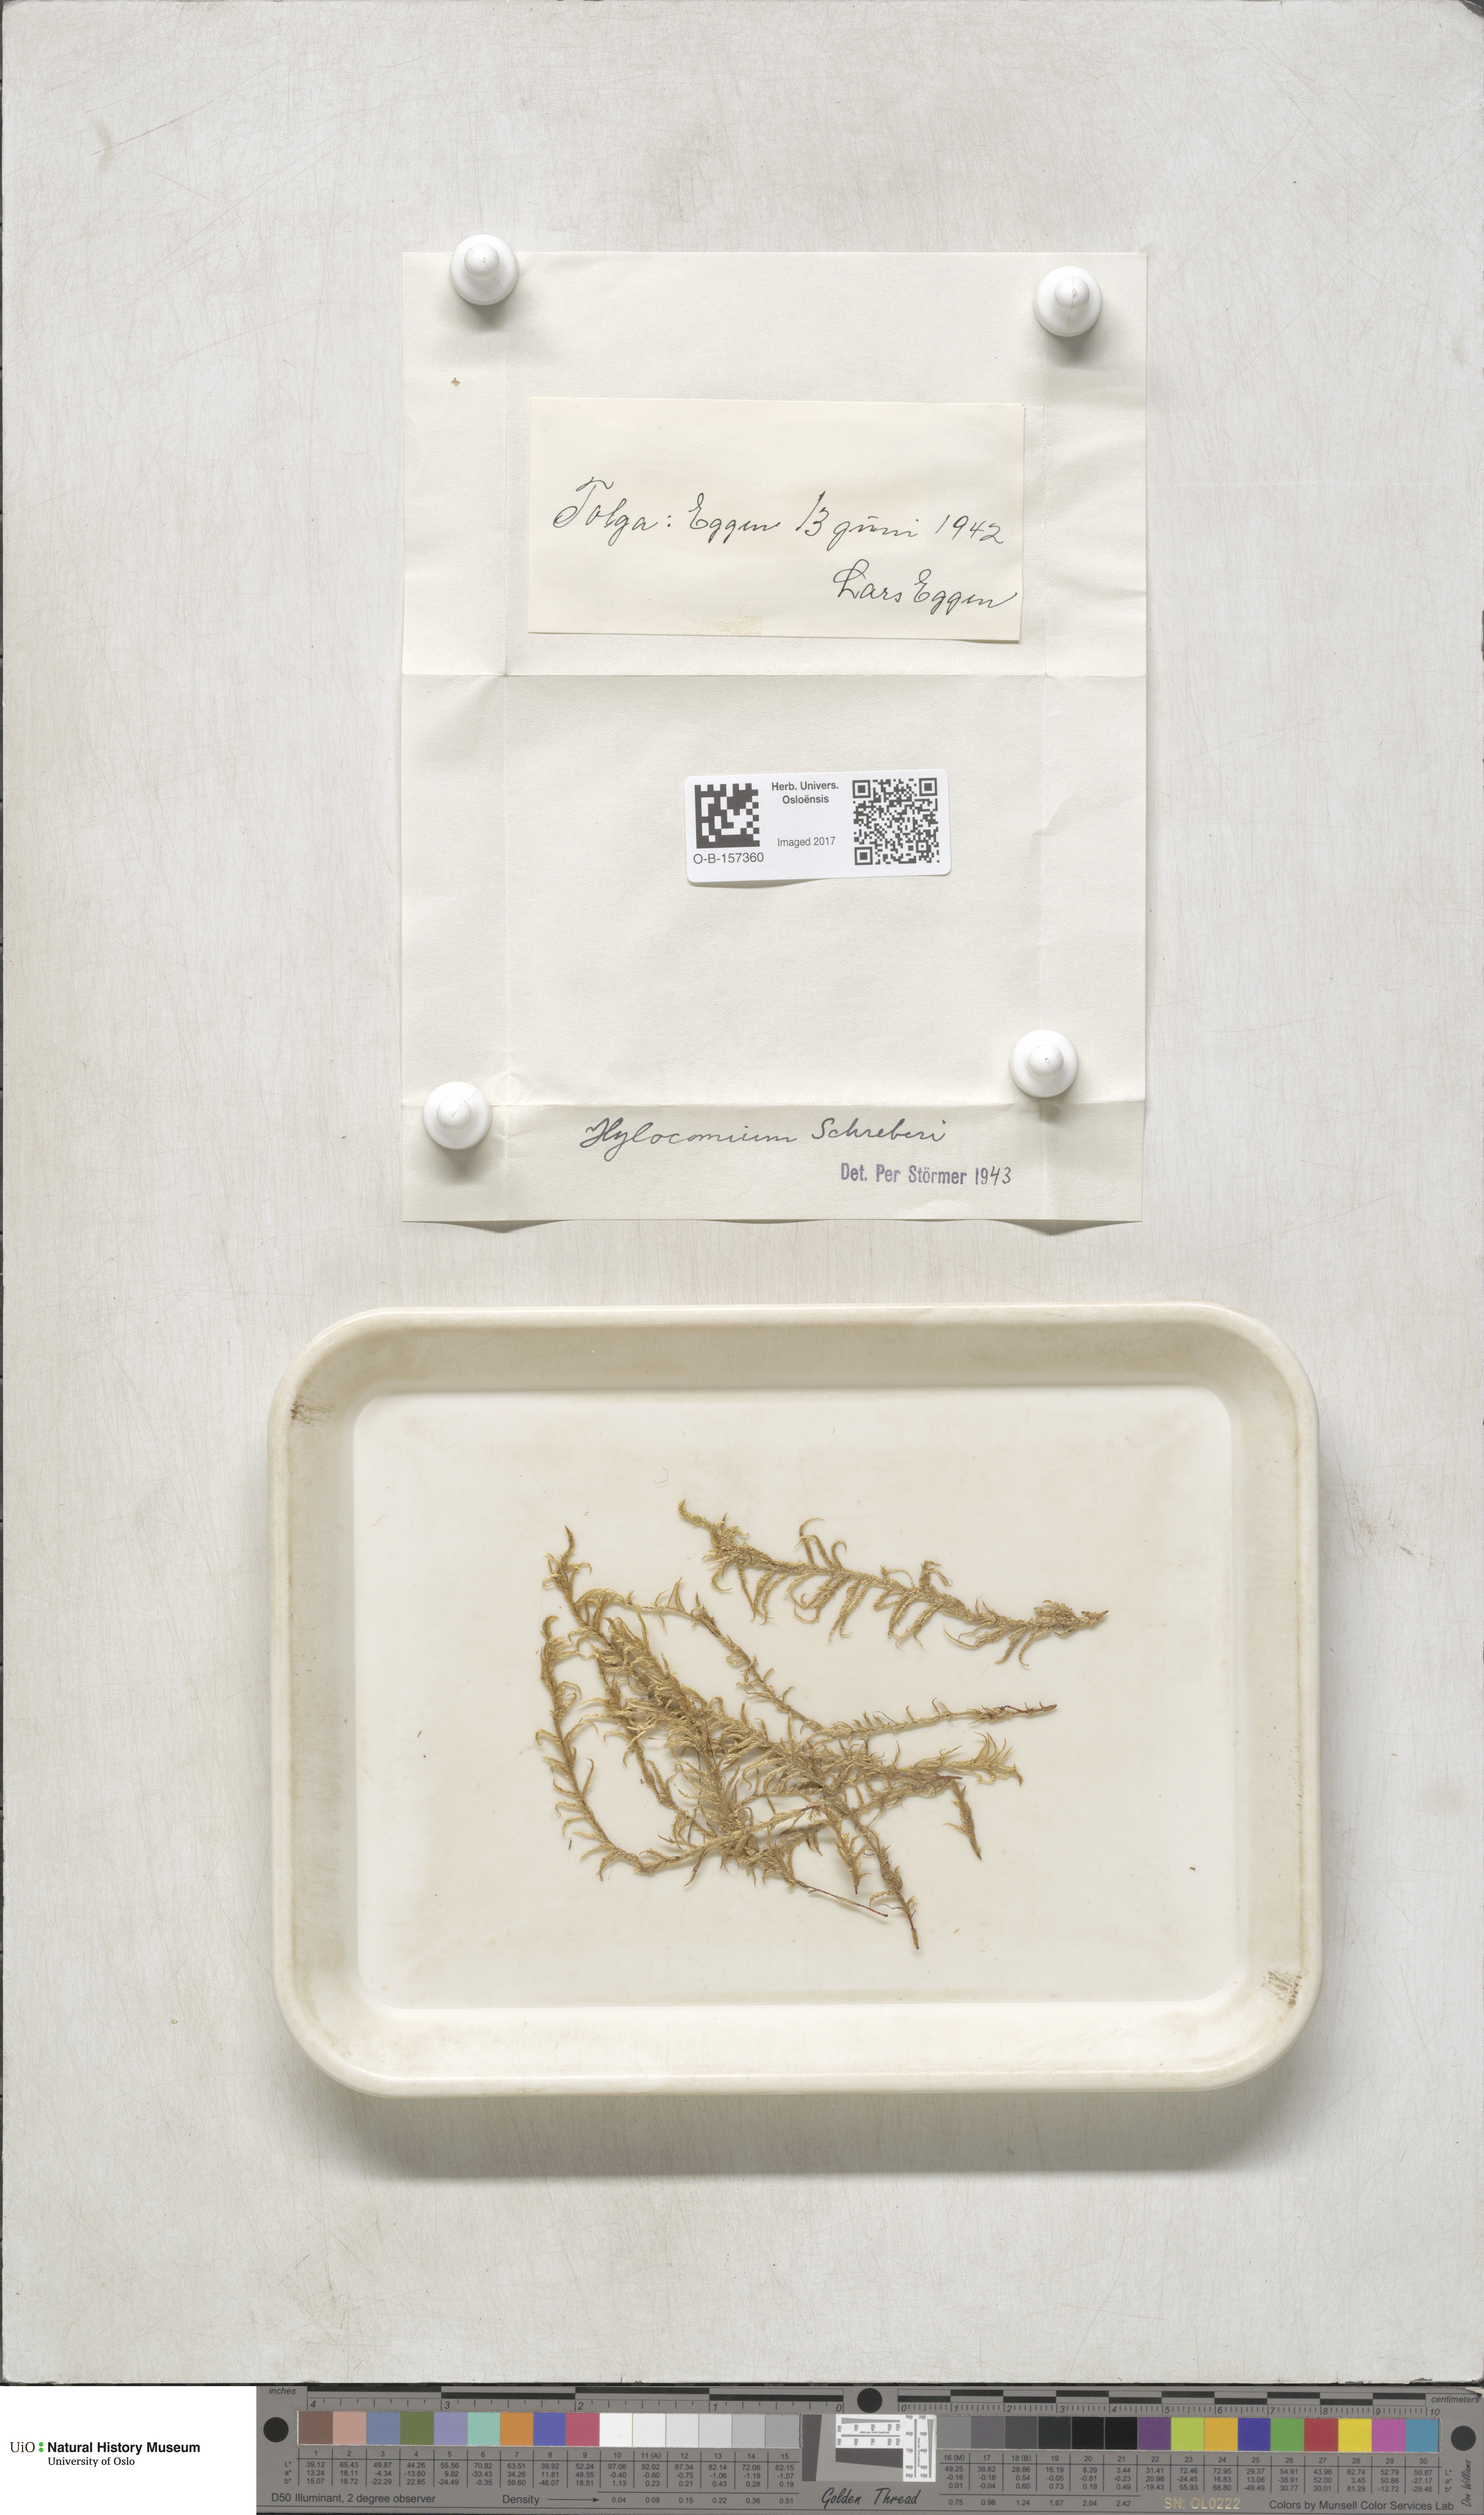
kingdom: Plantae
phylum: Bryophyta
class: Bryopsida
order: Hypnales
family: Hylocomiaceae
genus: Pleurozium
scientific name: Pleurozium schreberi
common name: Red-stemmed feather moss
